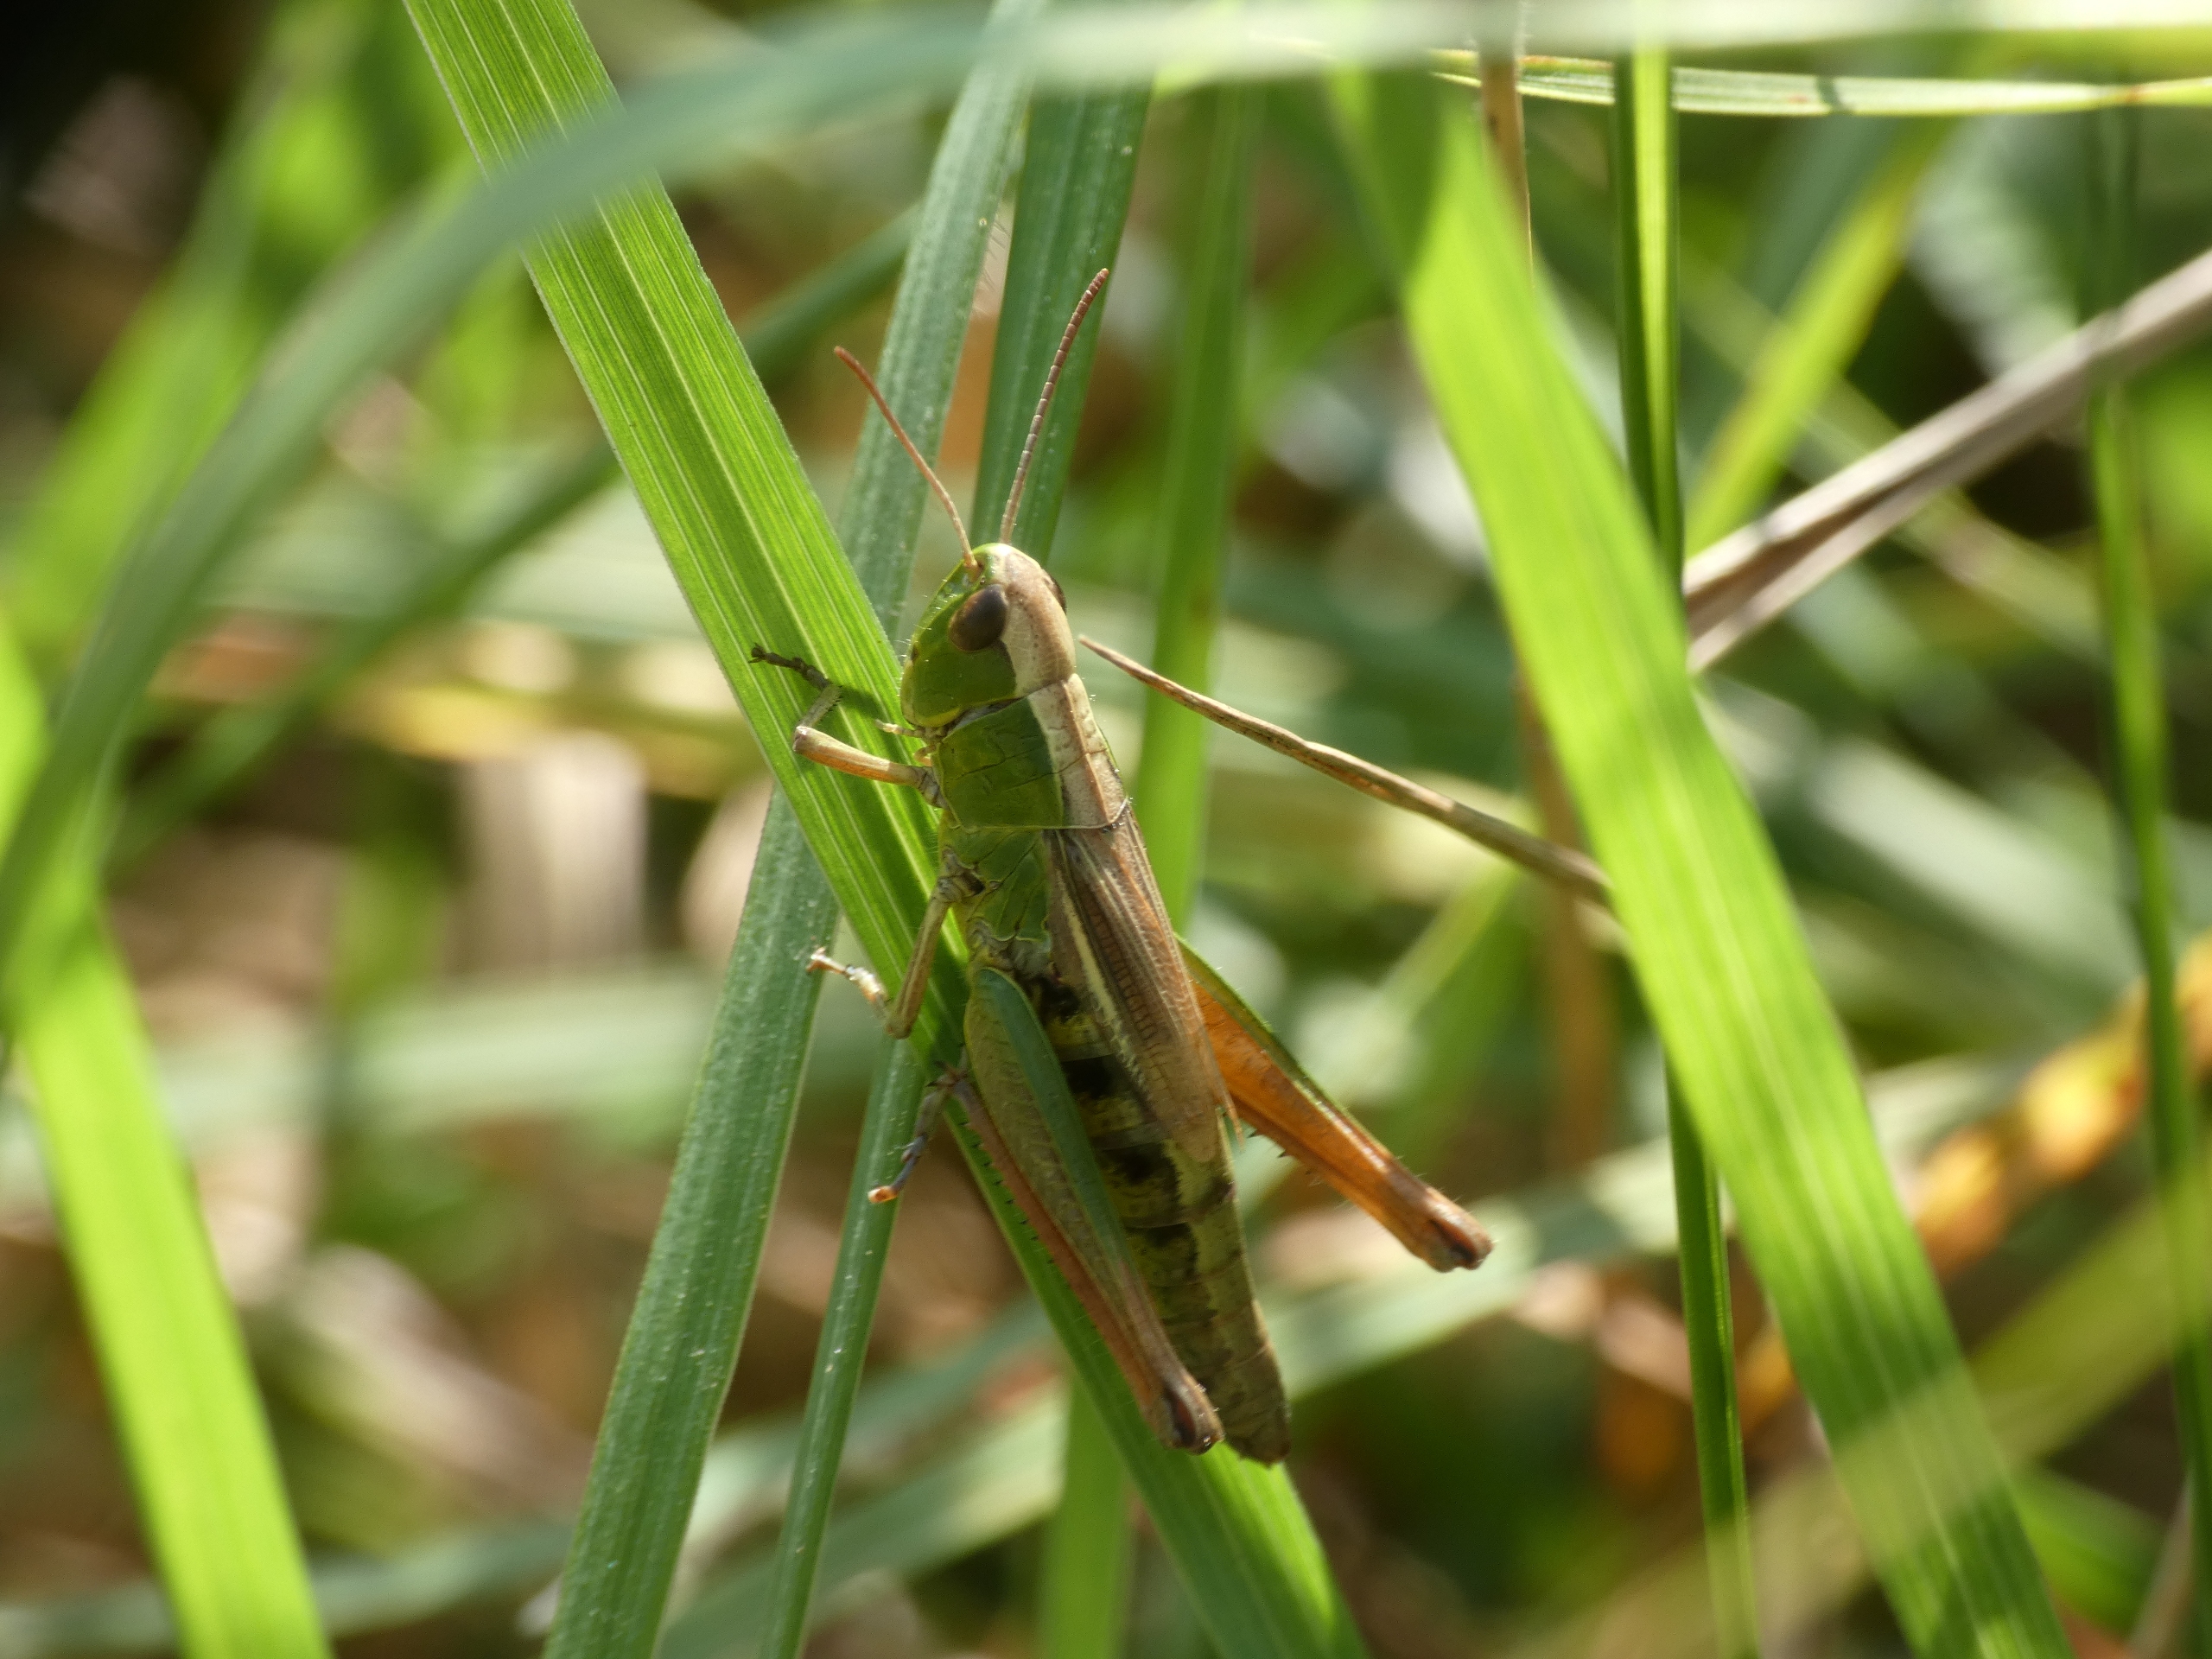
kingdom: Animalia
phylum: Arthropoda
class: Insecta
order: Orthoptera
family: Acrididae
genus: Pseudochorthippus
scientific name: Pseudochorthippus parallelus
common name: Enggræshoppe
